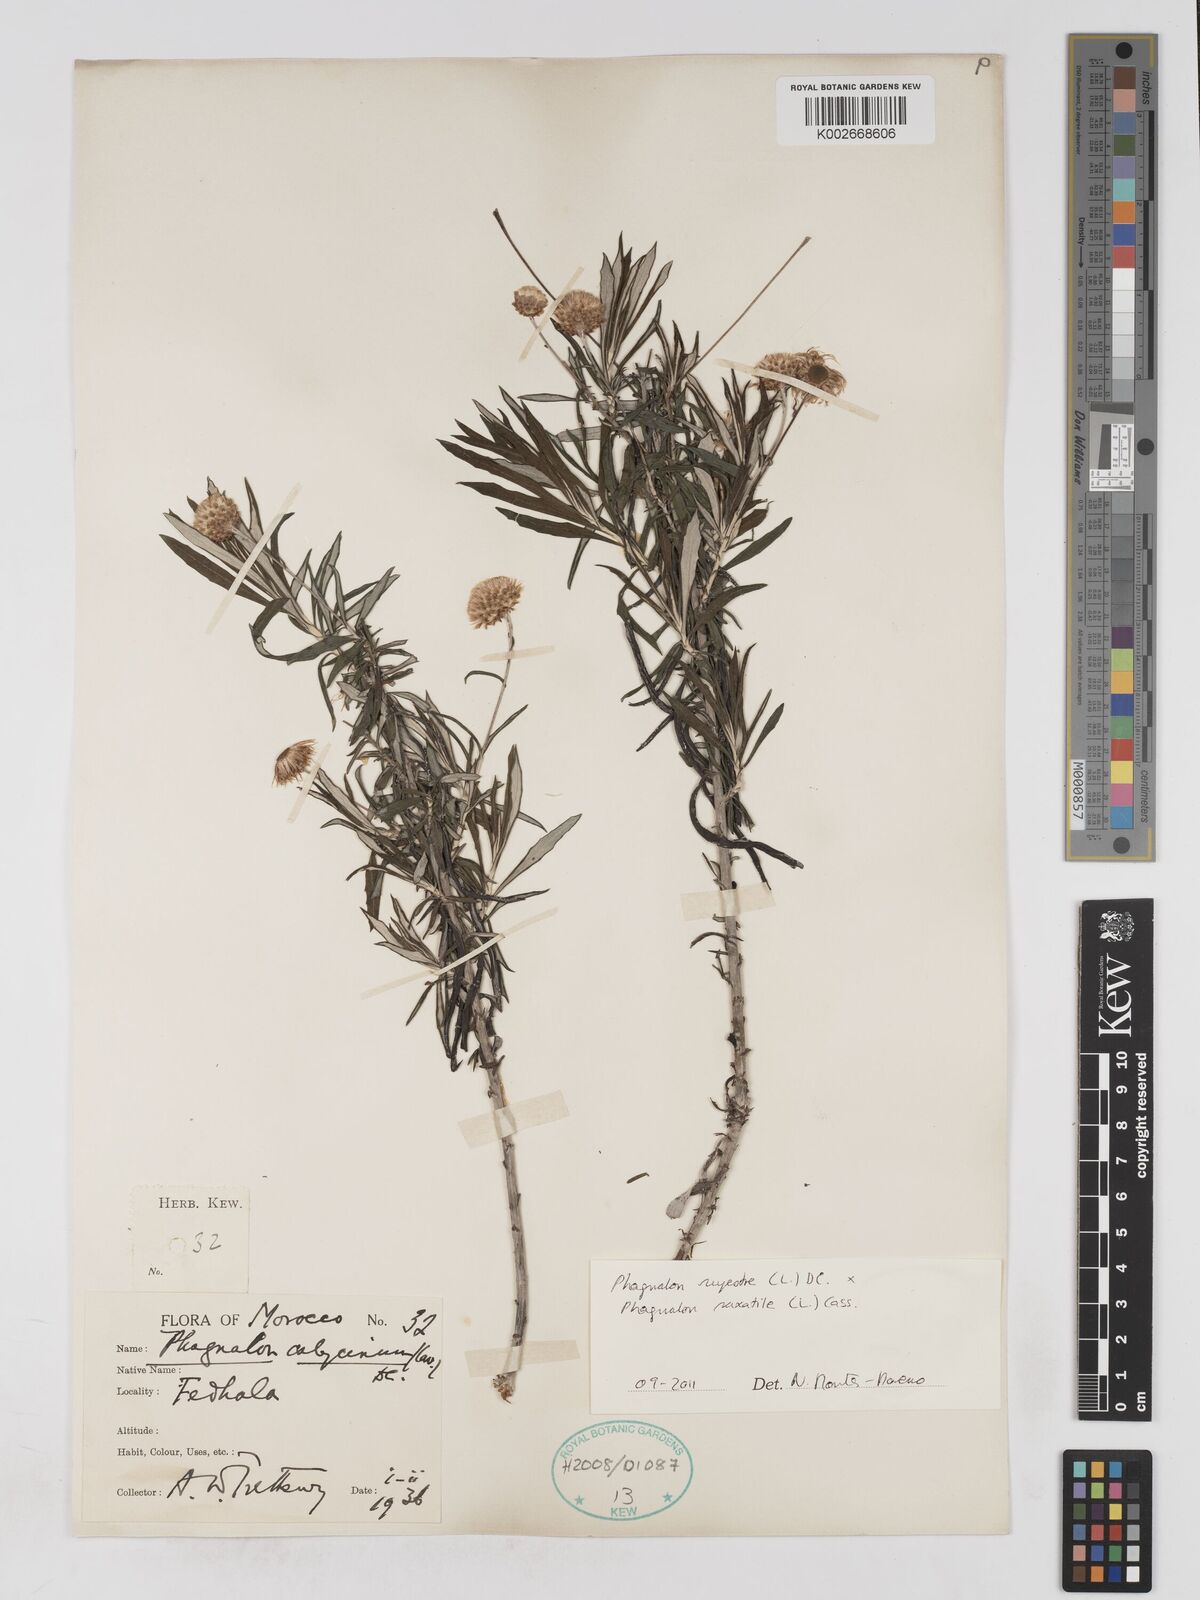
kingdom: Plantae
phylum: Tracheophyta
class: Magnoliopsida
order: Asterales
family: Asteraceae
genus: Phagnalon
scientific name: Phagnalon saxatile
